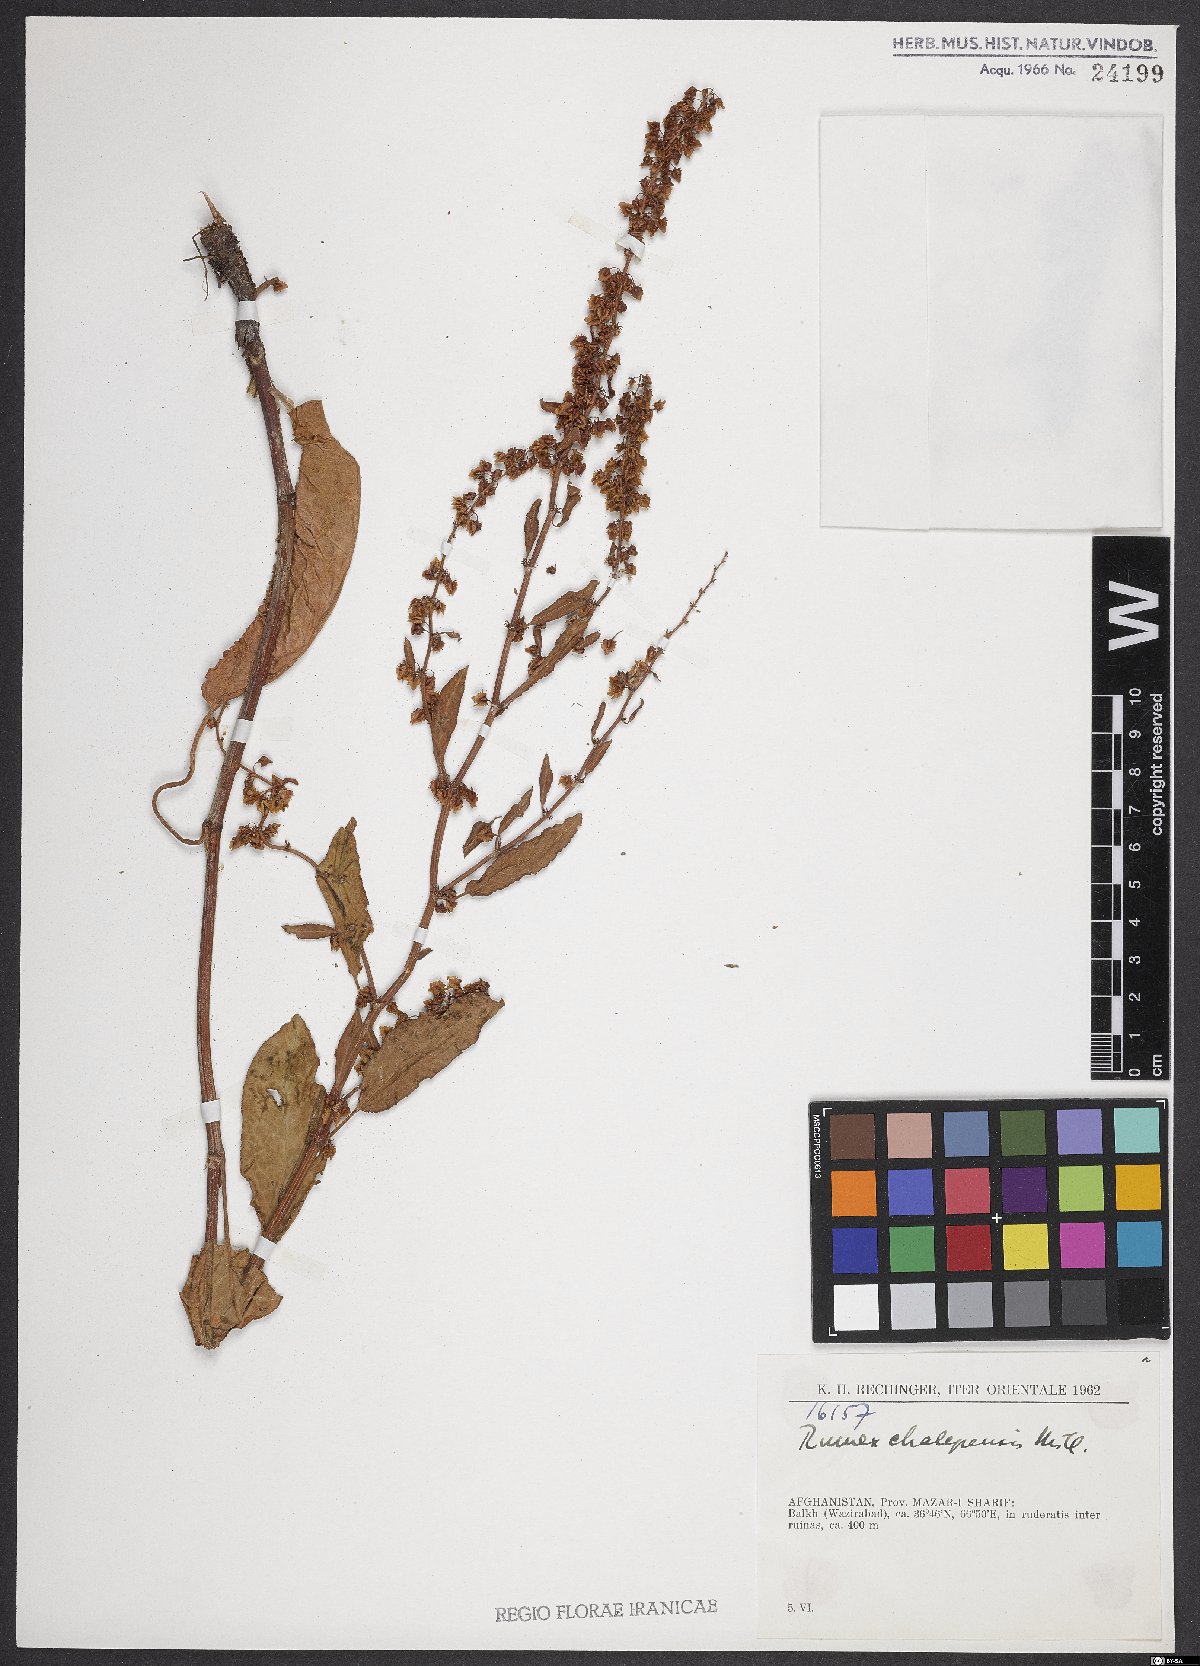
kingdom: Plantae
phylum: Tracheophyta
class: Magnoliopsida
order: Caryophyllales
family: Polygonaceae
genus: Rumex
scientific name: Rumex chalepensis
